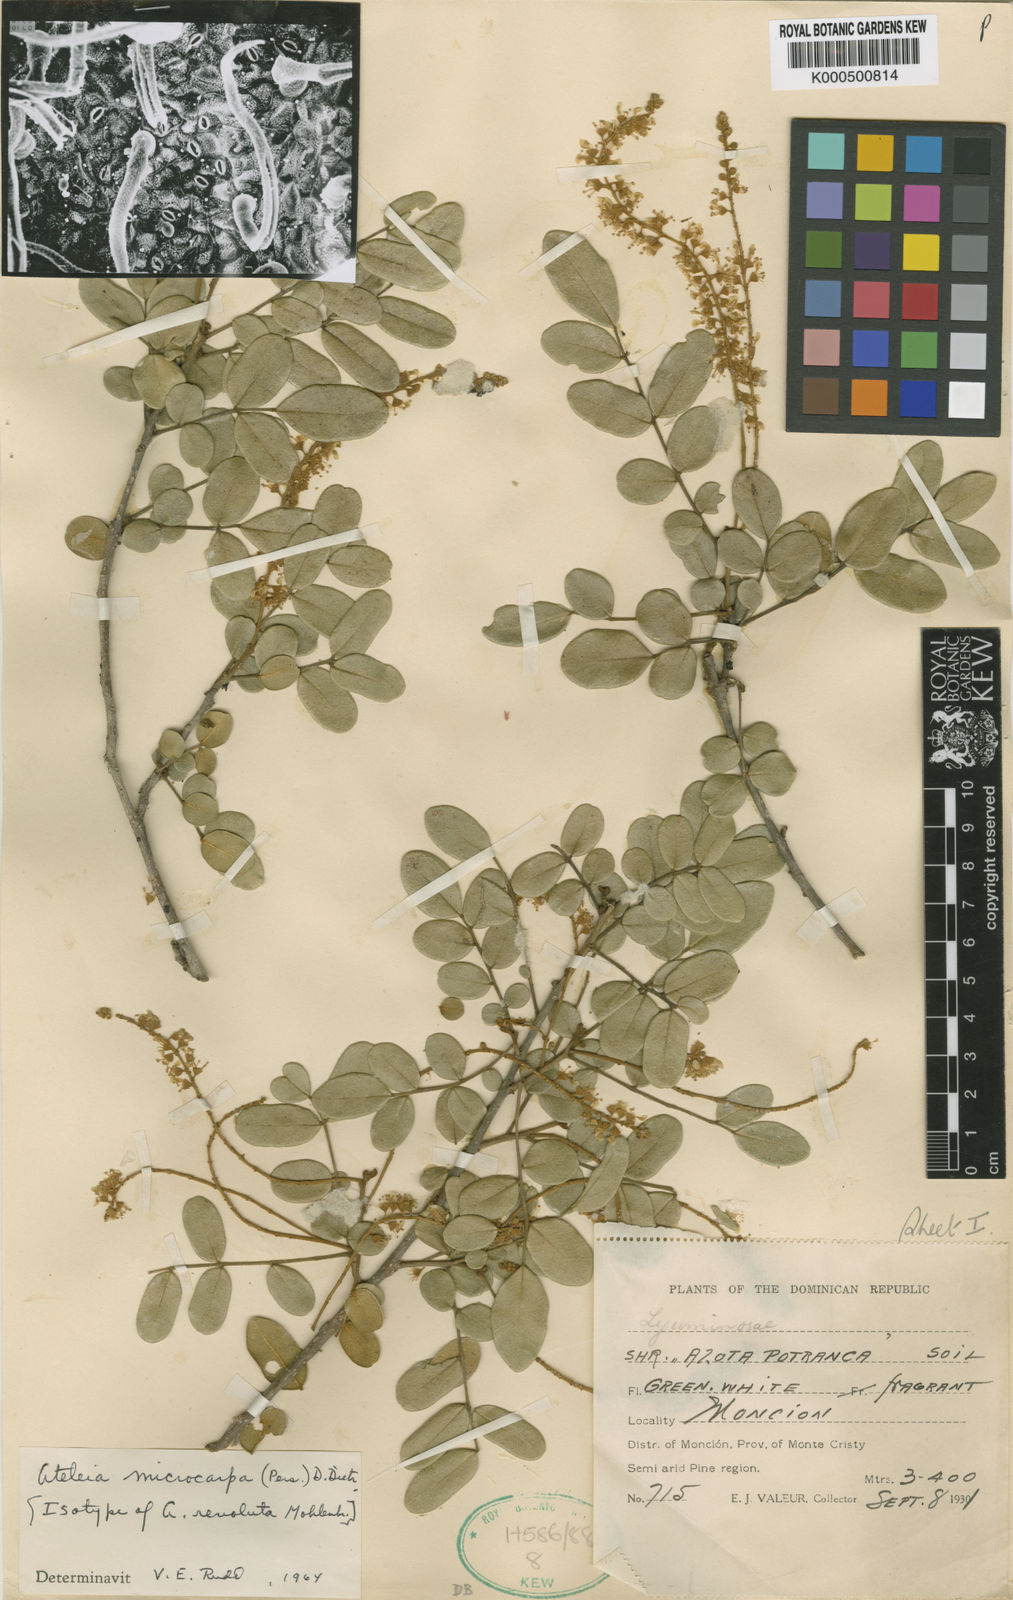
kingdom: Plantae
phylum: Tracheophyta
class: Magnoliopsida
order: Fabales
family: Fabaceae
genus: Ateleia
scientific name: Ateleia microcarpa
